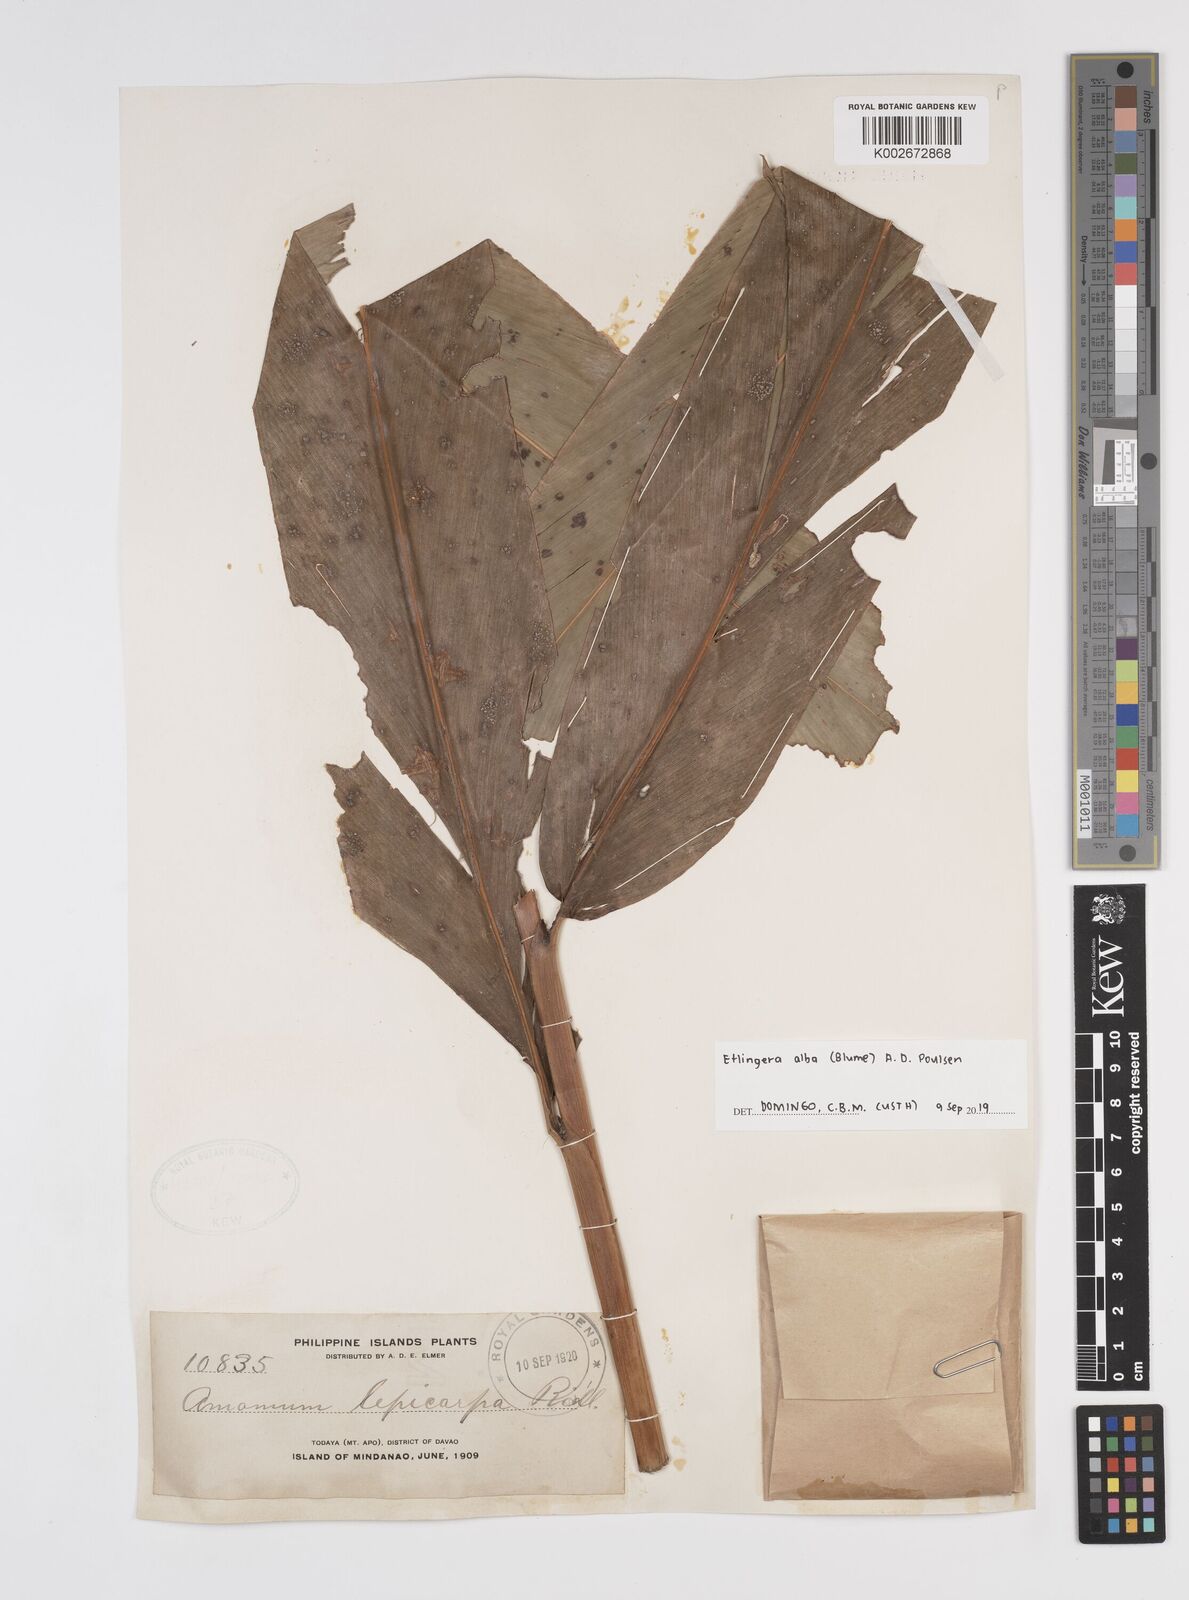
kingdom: Plantae
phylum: Tracheophyta
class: Liliopsida
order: Zingiberales
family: Zingiberaceae
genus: Etlingera
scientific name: Etlingera alba
